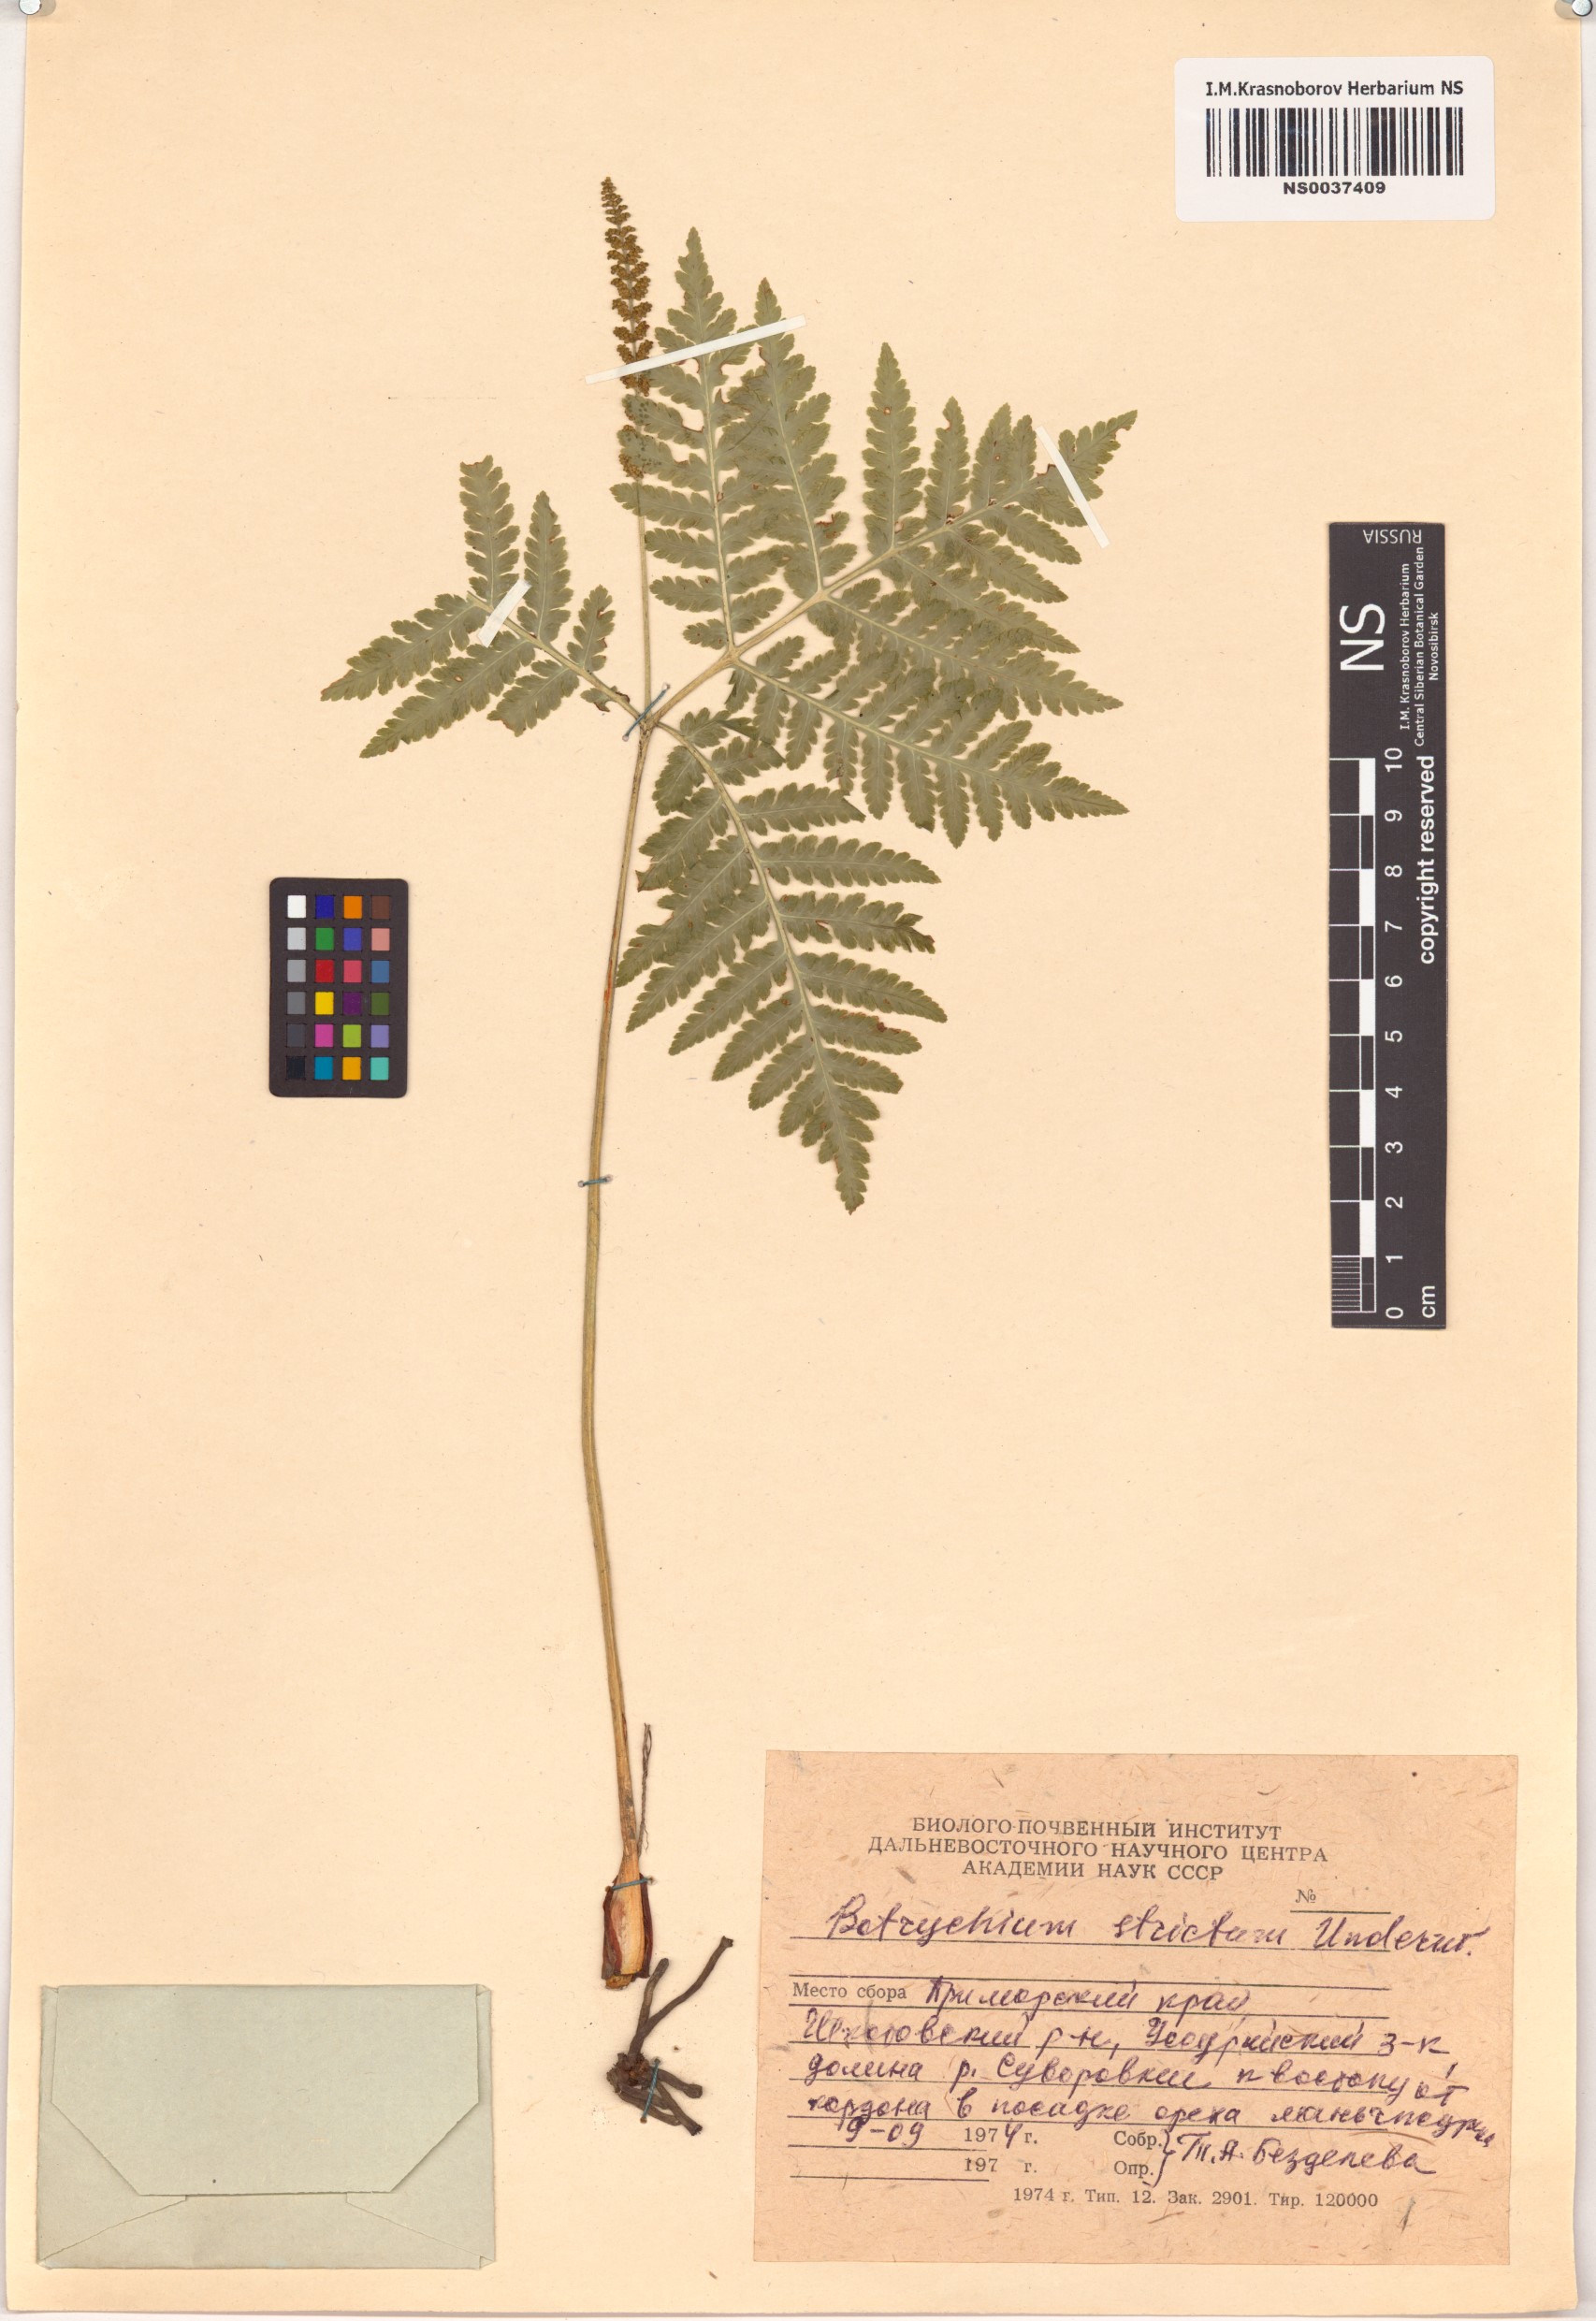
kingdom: Plantae
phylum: Tracheophyta
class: Polypodiopsida
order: Ophioglossales
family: Ophioglossaceae
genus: Sahashia
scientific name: Sahashia stricta
